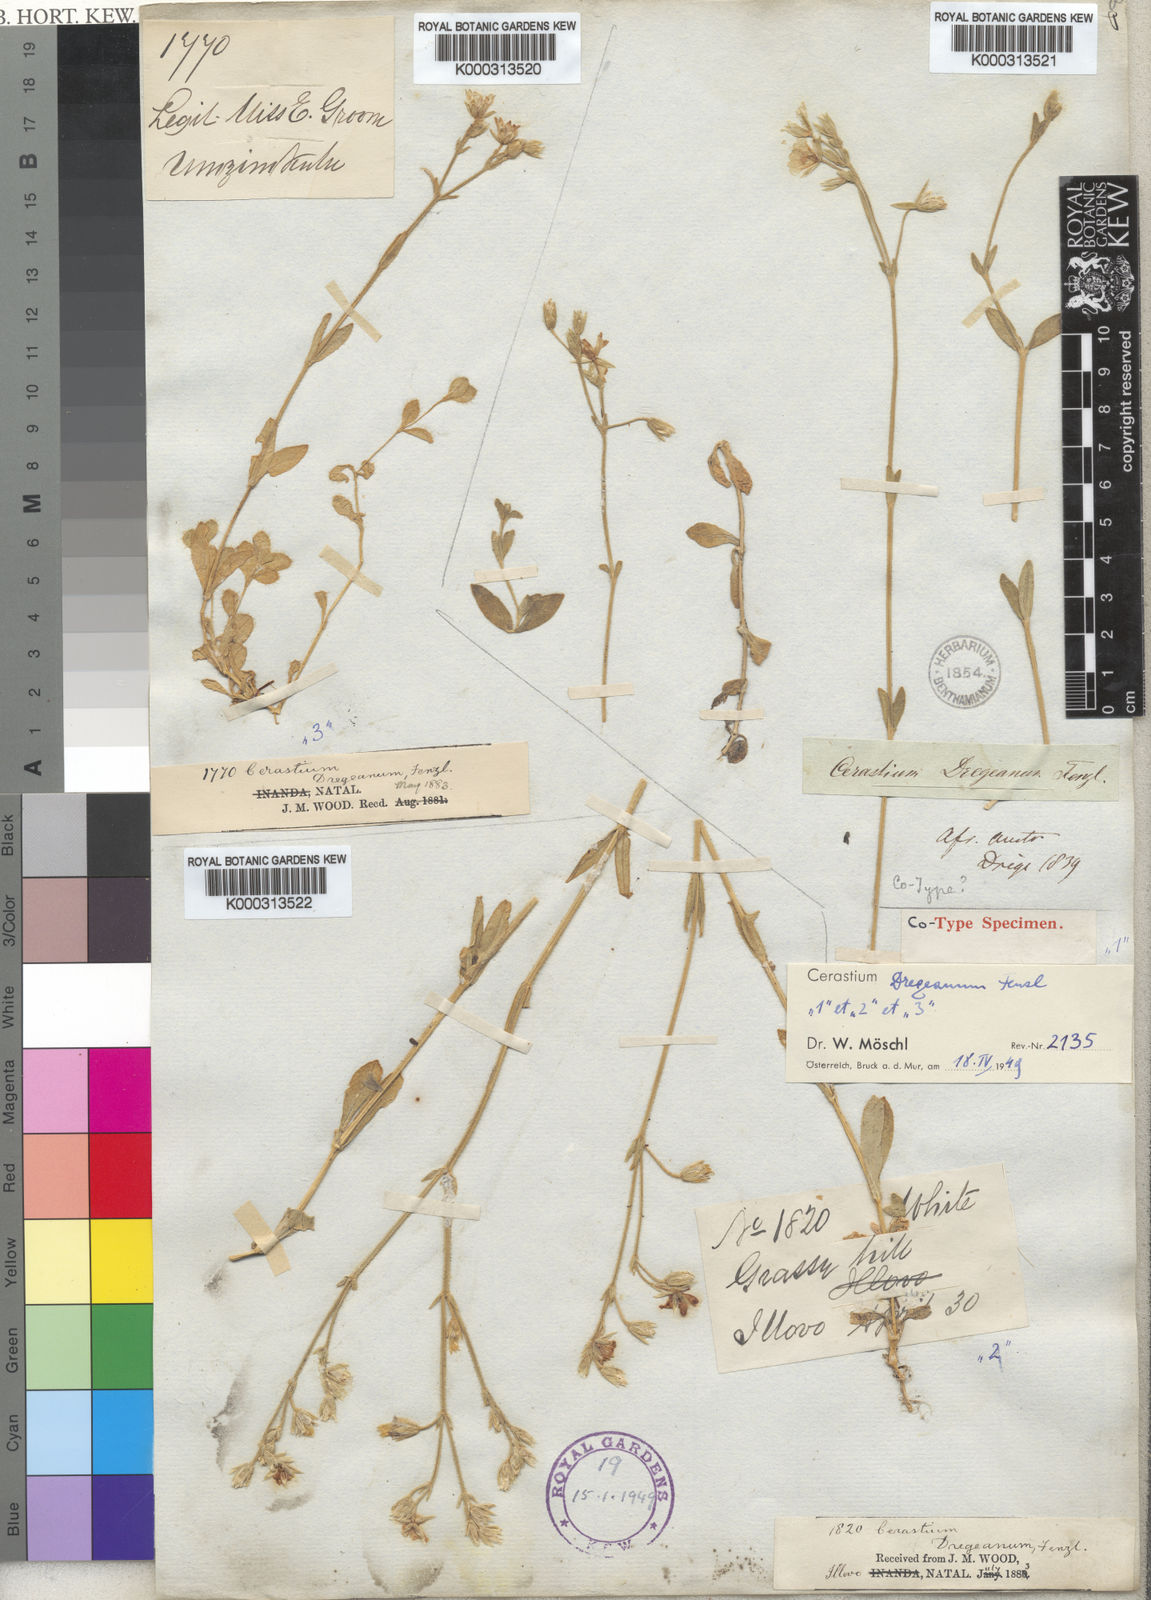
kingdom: Plantae
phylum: Tracheophyta
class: Magnoliopsida
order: Caryophyllales
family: Caryophyllaceae
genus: Cerastium
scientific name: Cerastium arabidis
